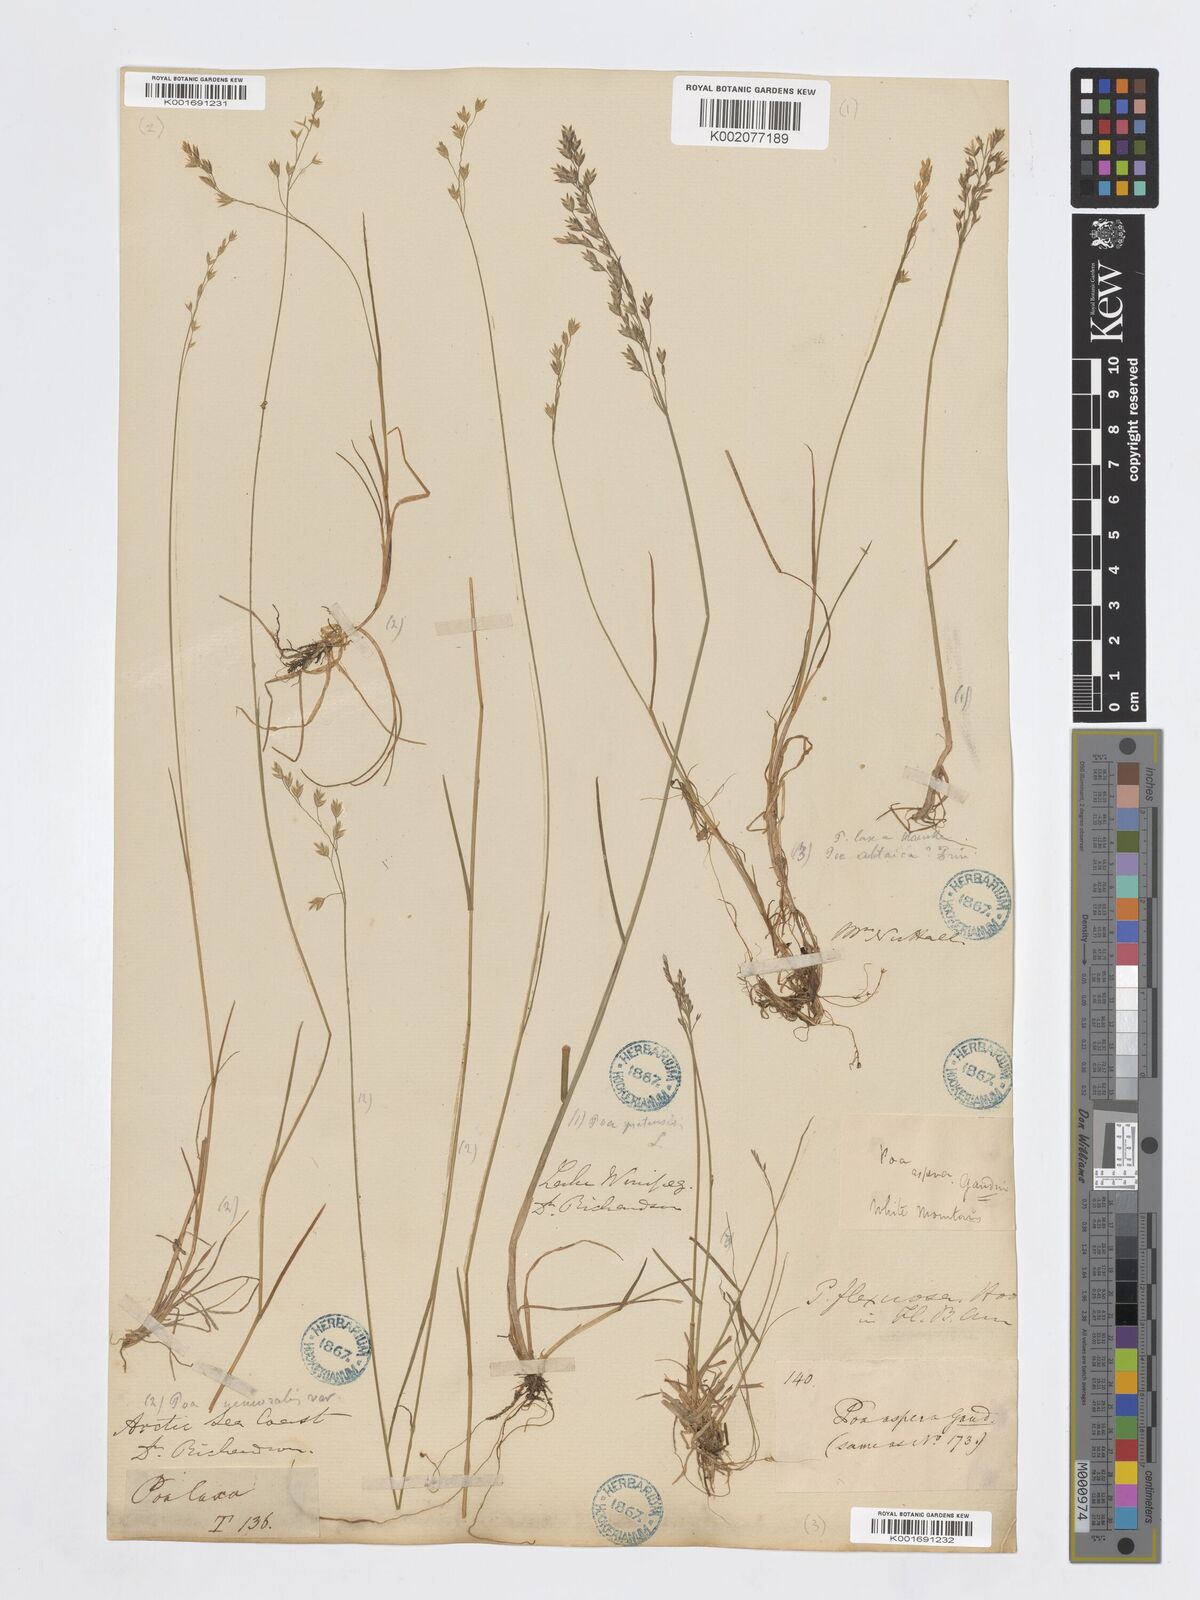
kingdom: Plantae
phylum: Tracheophyta
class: Liliopsida
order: Poales
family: Poaceae
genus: Poa
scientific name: Poa pratensis
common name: Kentucky bluegrass
